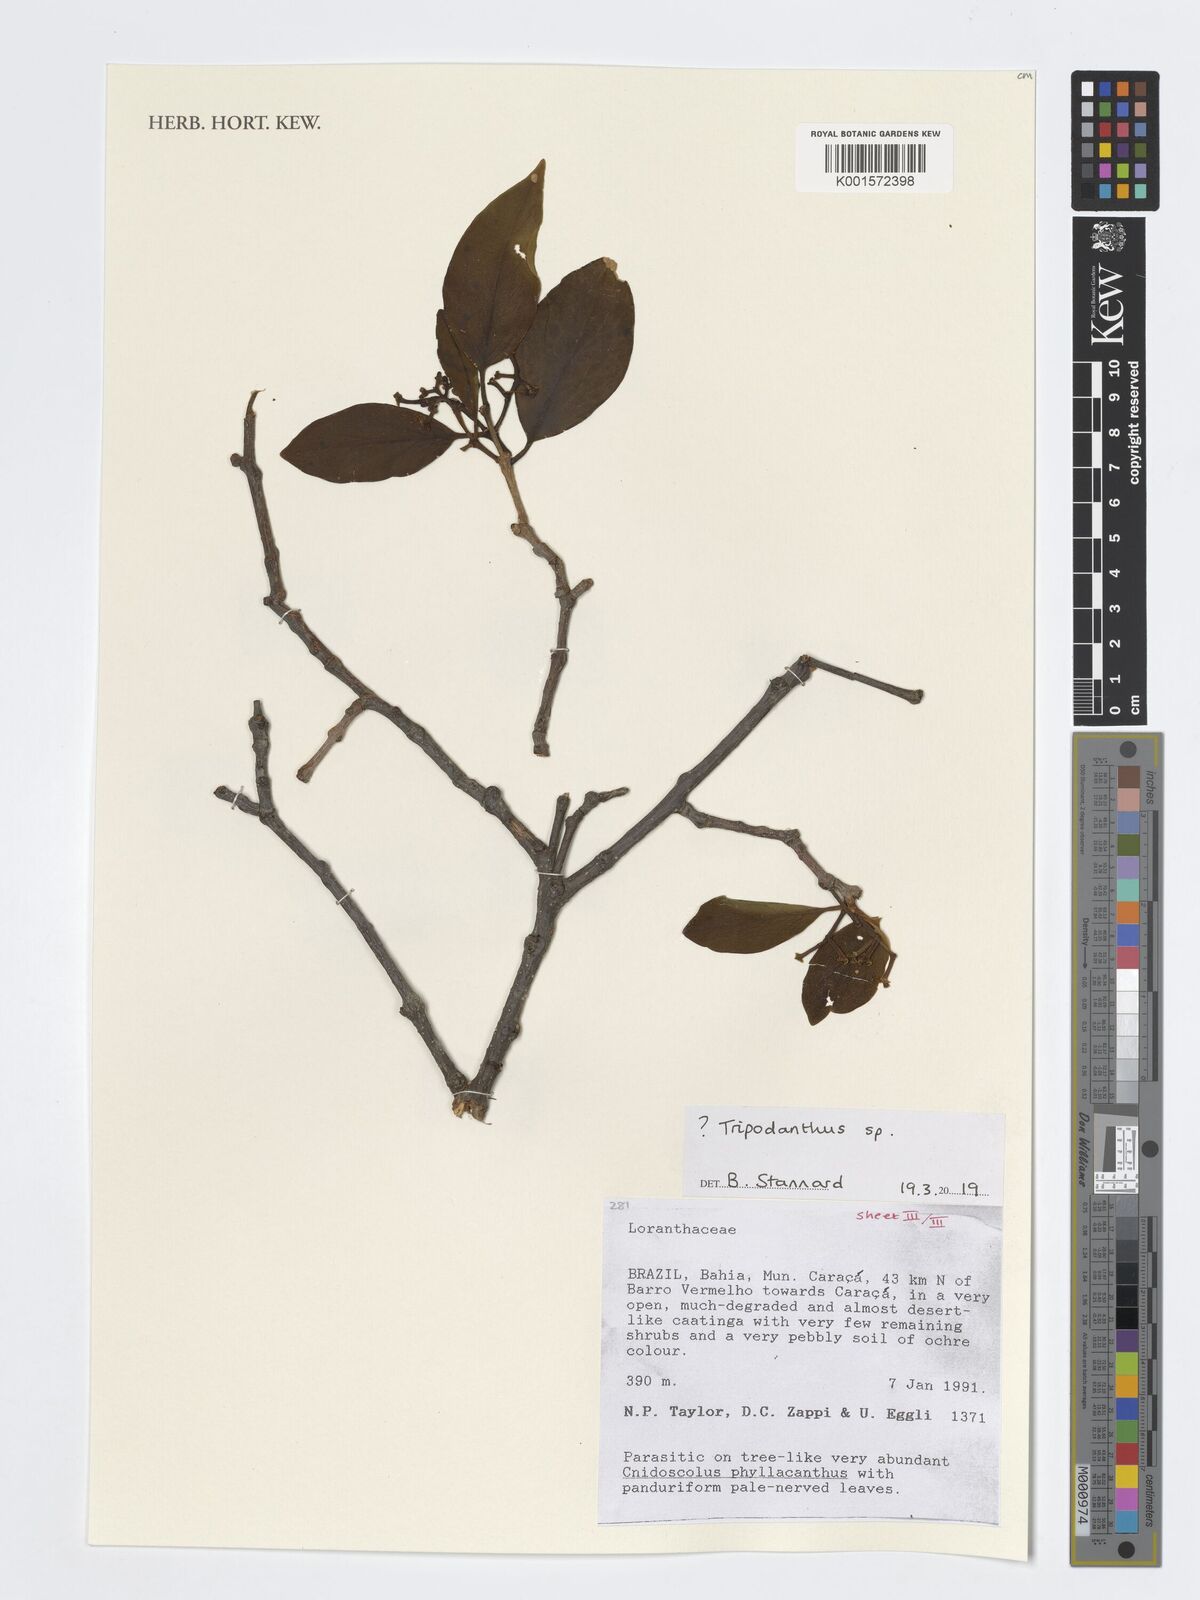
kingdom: Plantae
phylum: Tracheophyta
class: Magnoliopsida
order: Santalales
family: Loranthaceae
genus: Tripodanthus
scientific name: Tripodanthus
